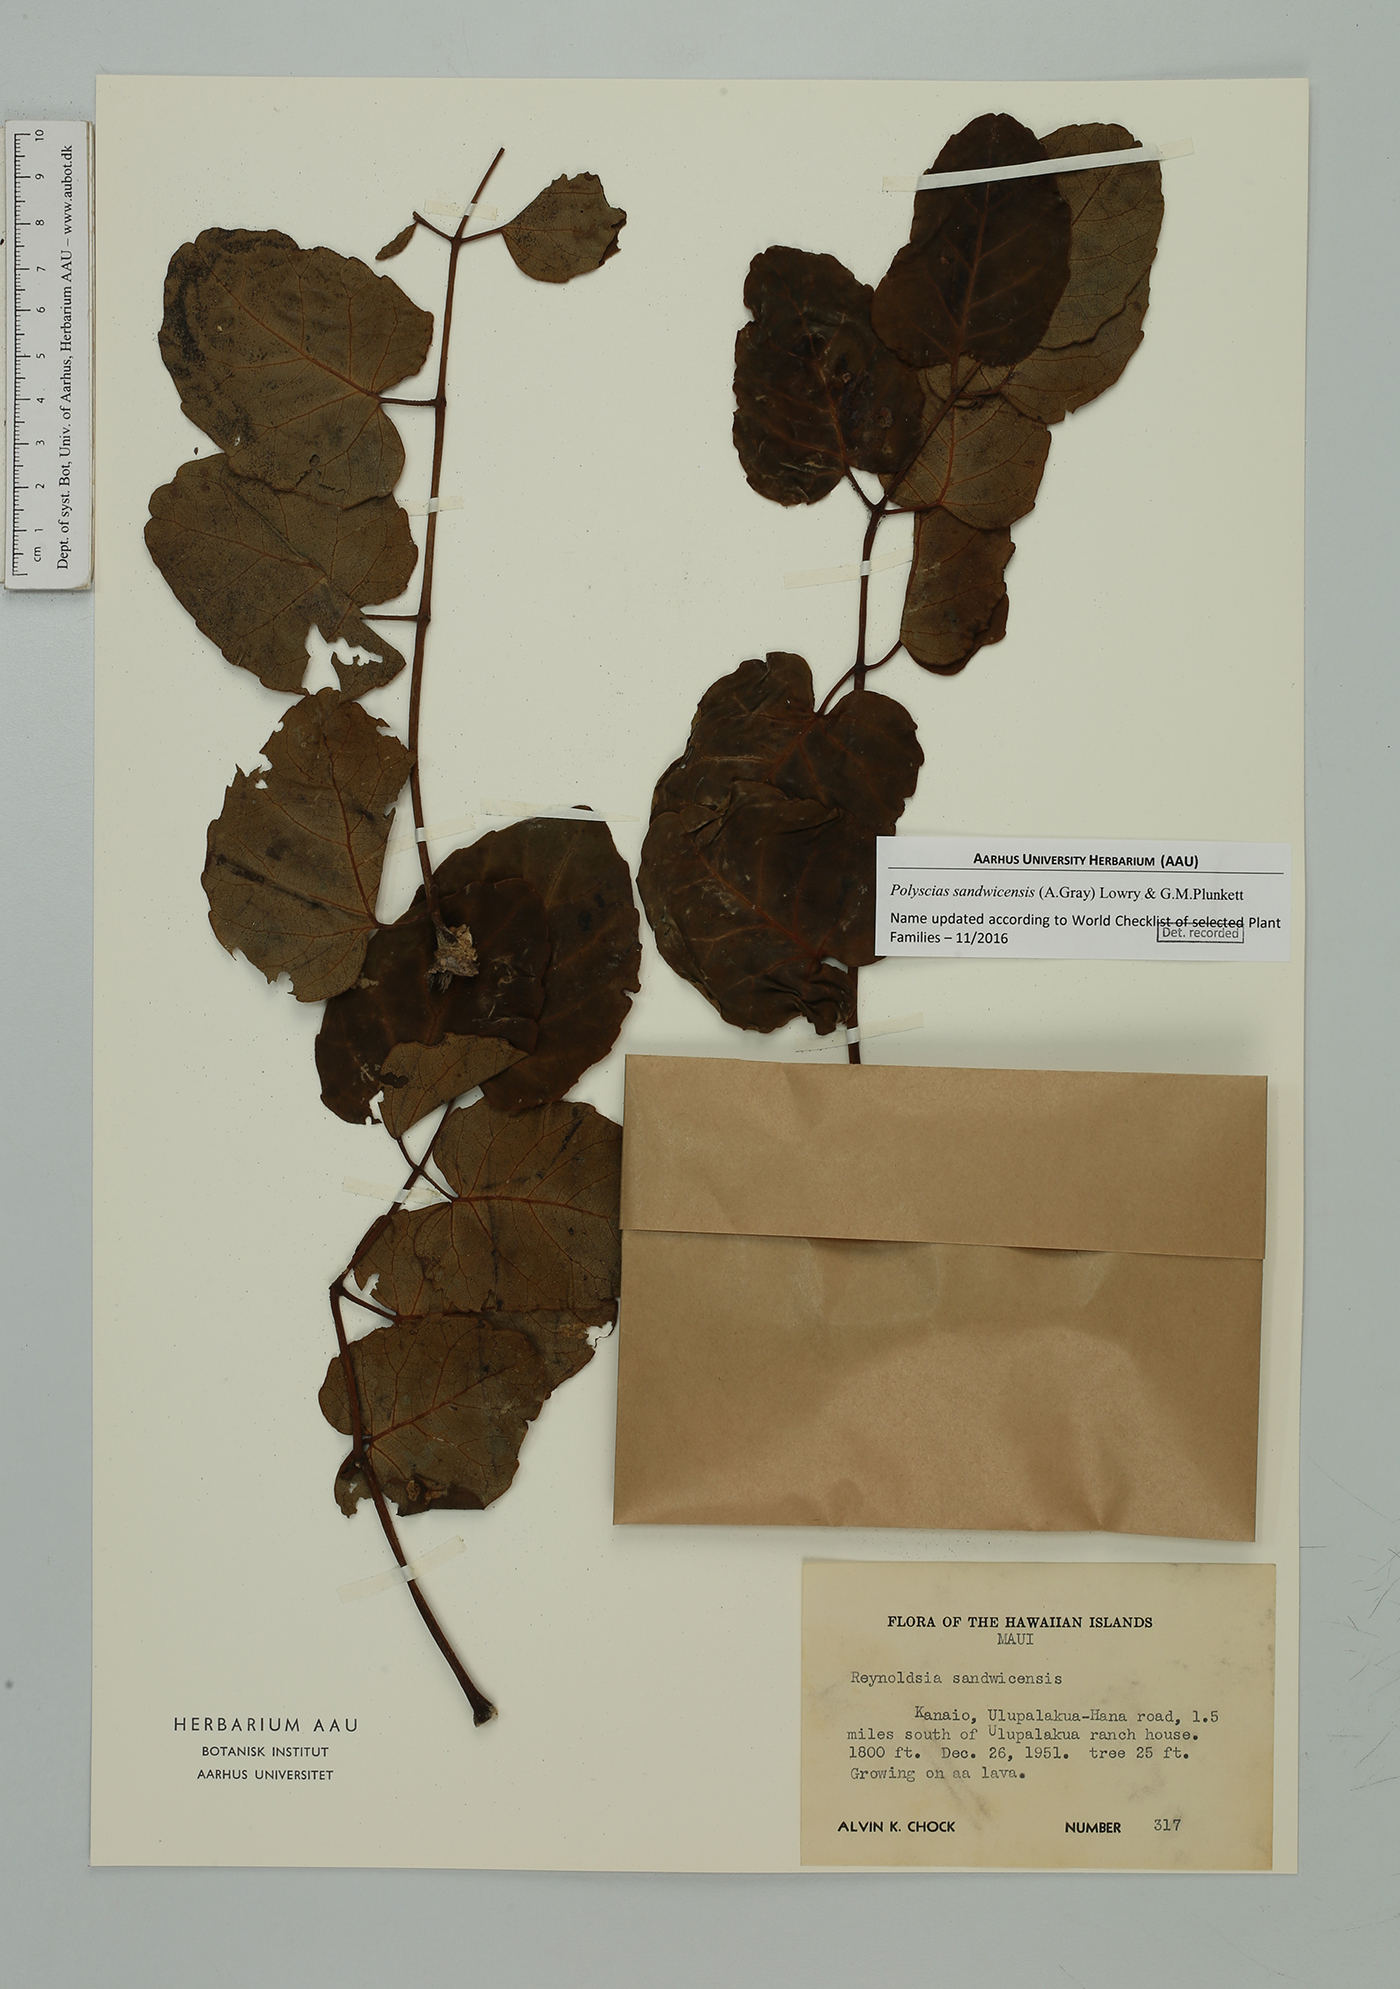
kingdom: Plantae
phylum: Tracheophyta
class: Magnoliopsida
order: Apiales
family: Araliaceae
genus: Polyscias
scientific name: Polyscias sandwicensis
